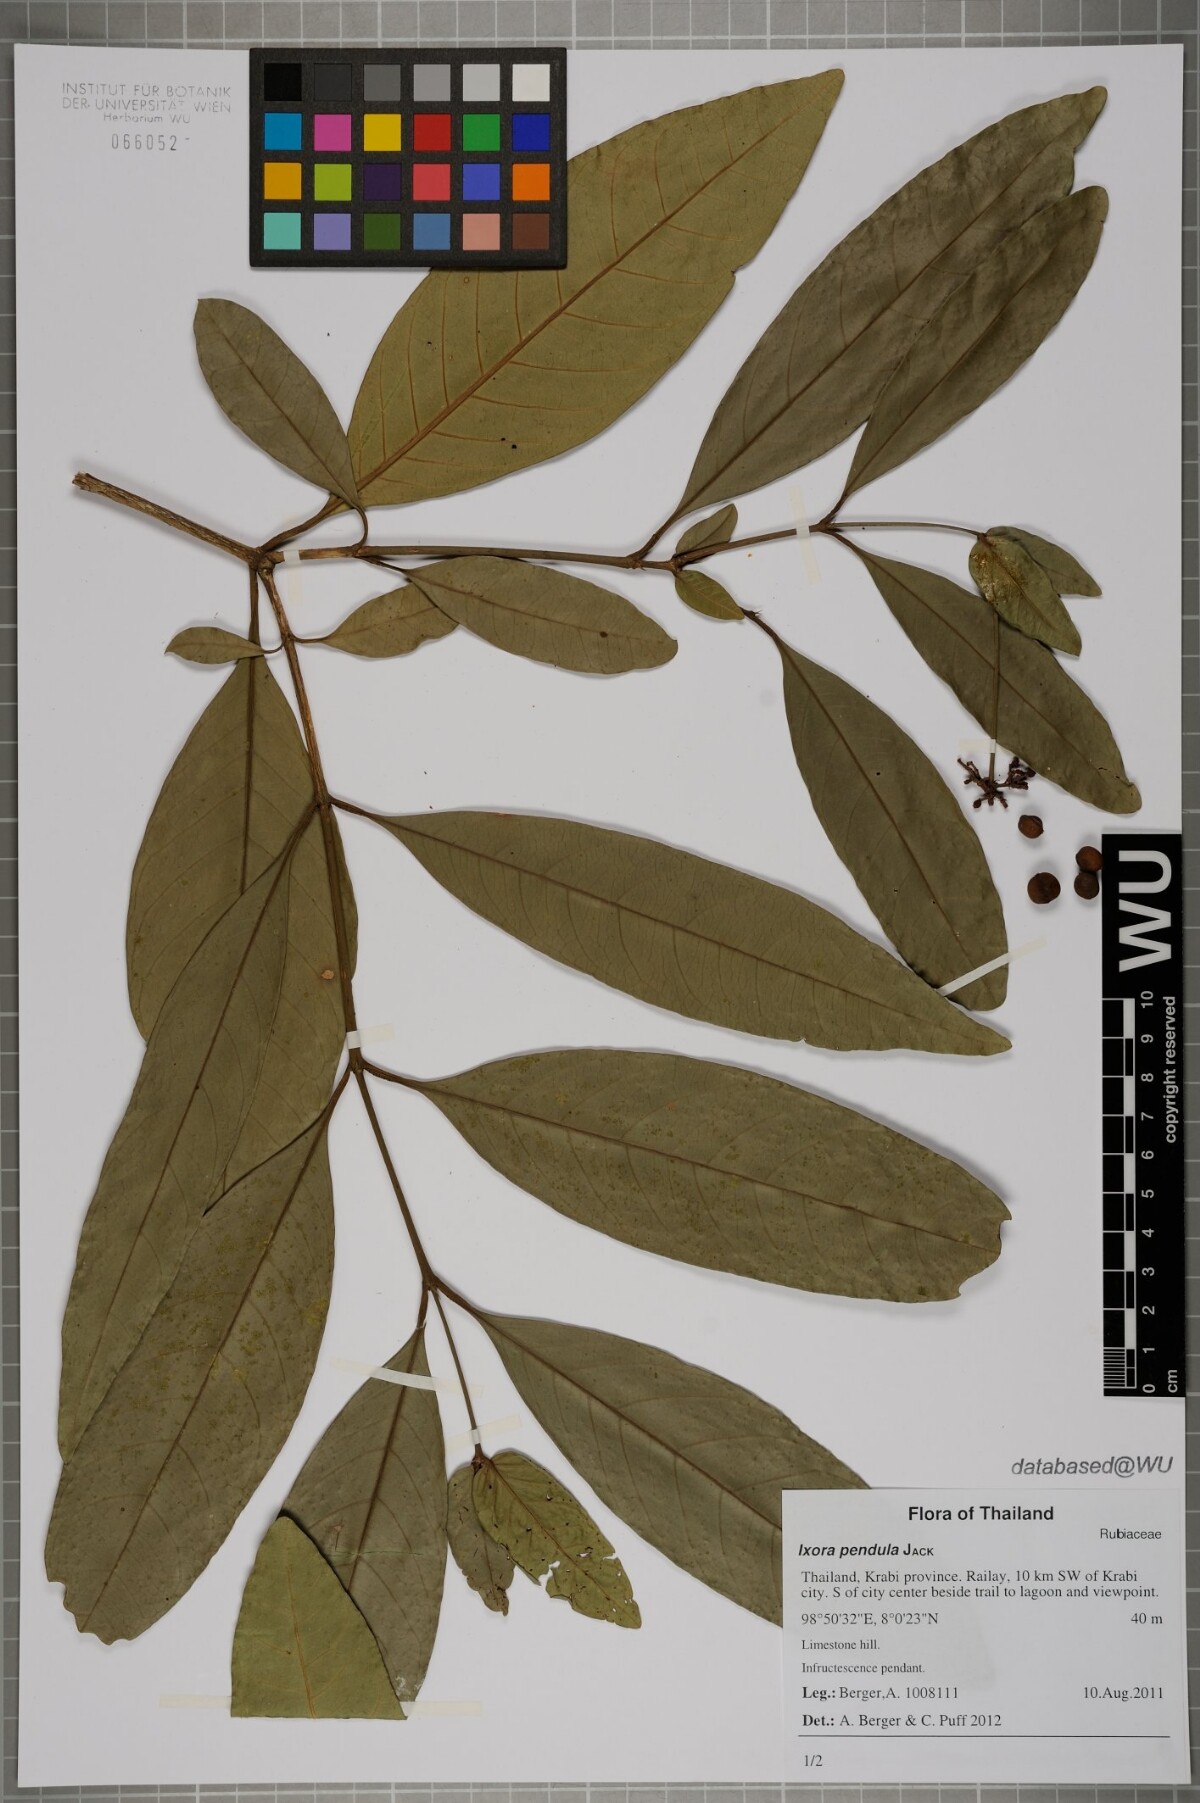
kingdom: Plantae
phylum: Tracheophyta
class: Magnoliopsida
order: Gentianales
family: Rubiaceae
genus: Ixora
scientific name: Ixora pendula
